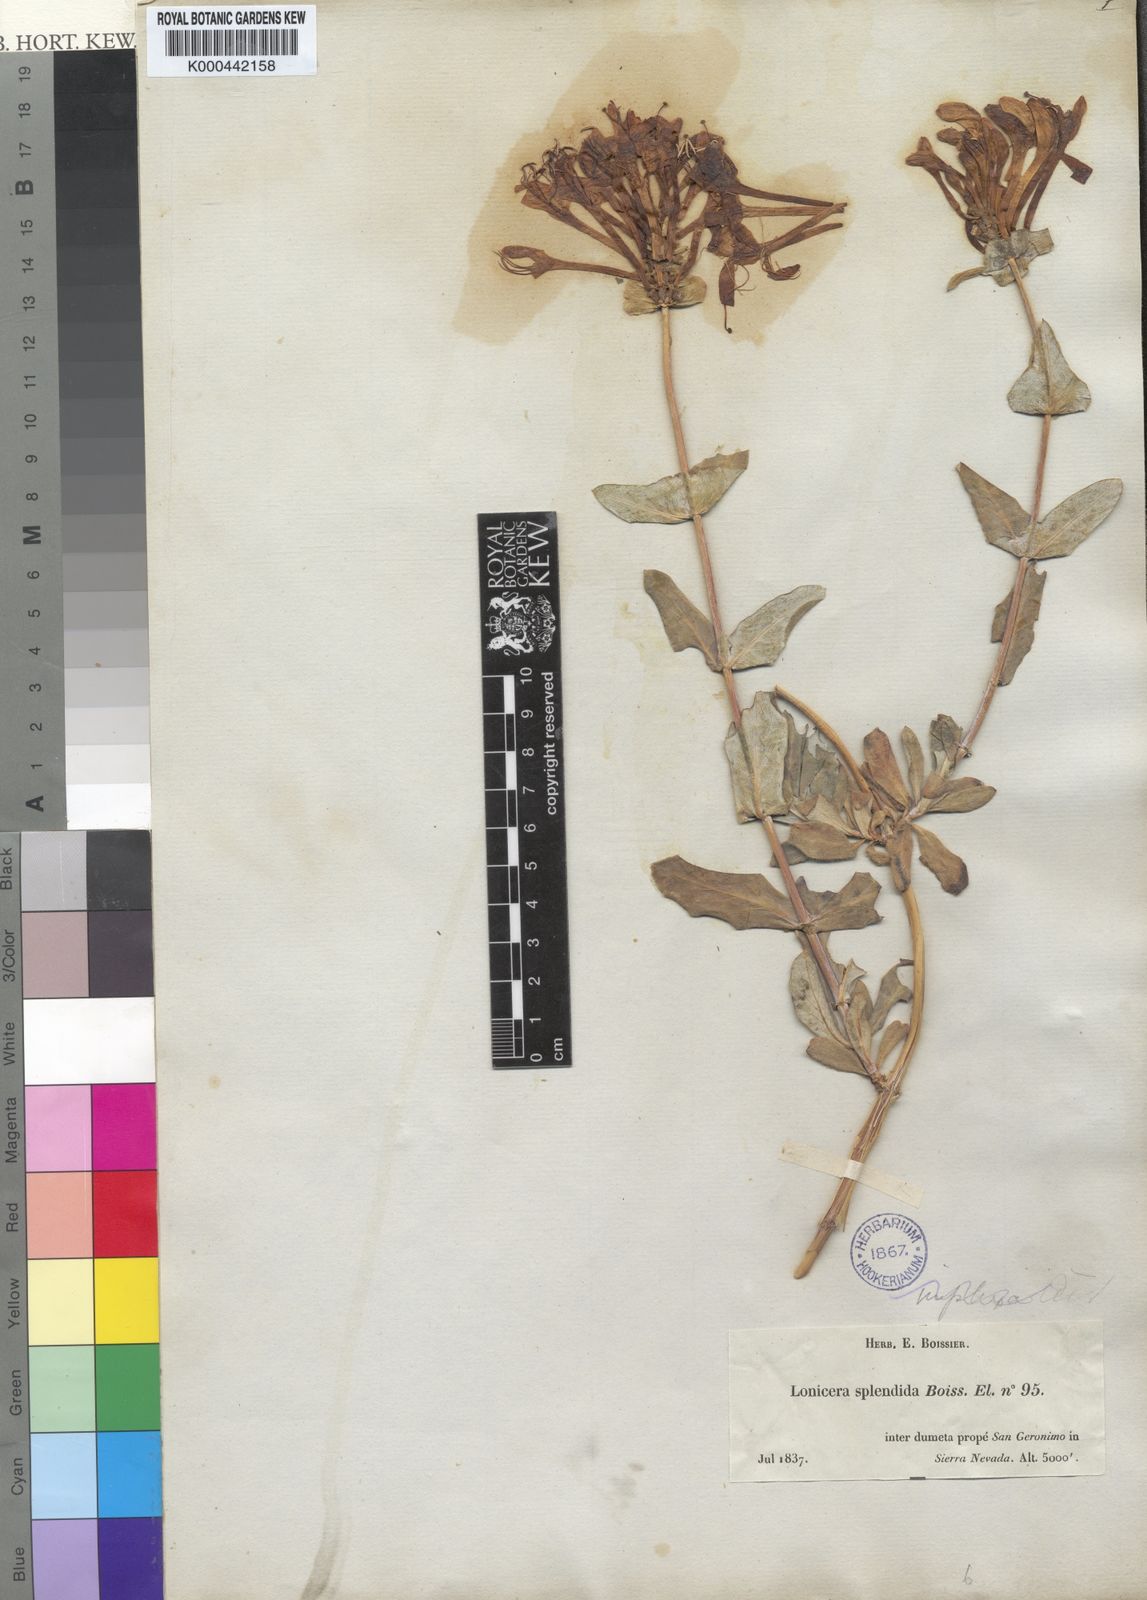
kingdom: Plantae
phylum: Tracheophyta
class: Magnoliopsida
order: Dipsacales
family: Caprifoliaceae
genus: Lonicera
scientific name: Lonicera splendida
